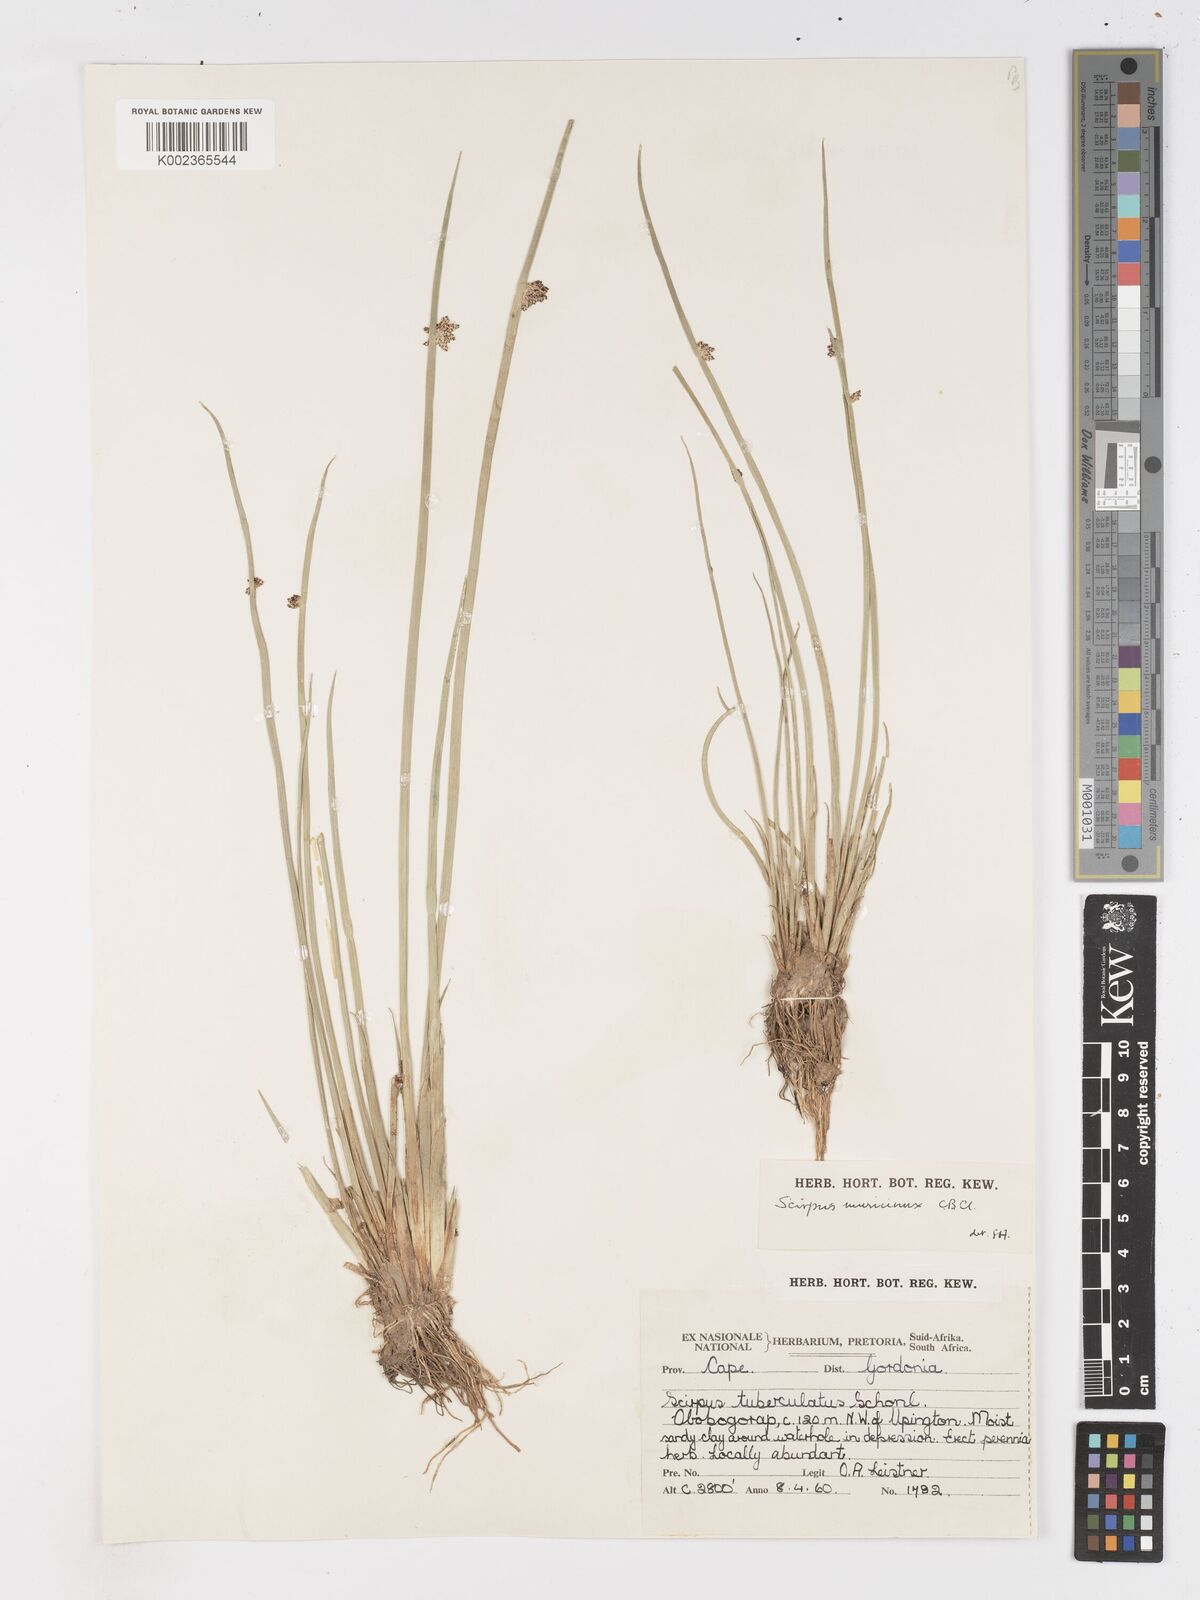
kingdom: Plantae
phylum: Tracheophyta
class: Liliopsida
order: Poales
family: Cyperaceae
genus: Schoenoplectiella
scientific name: Schoenoplectiella muricinux
